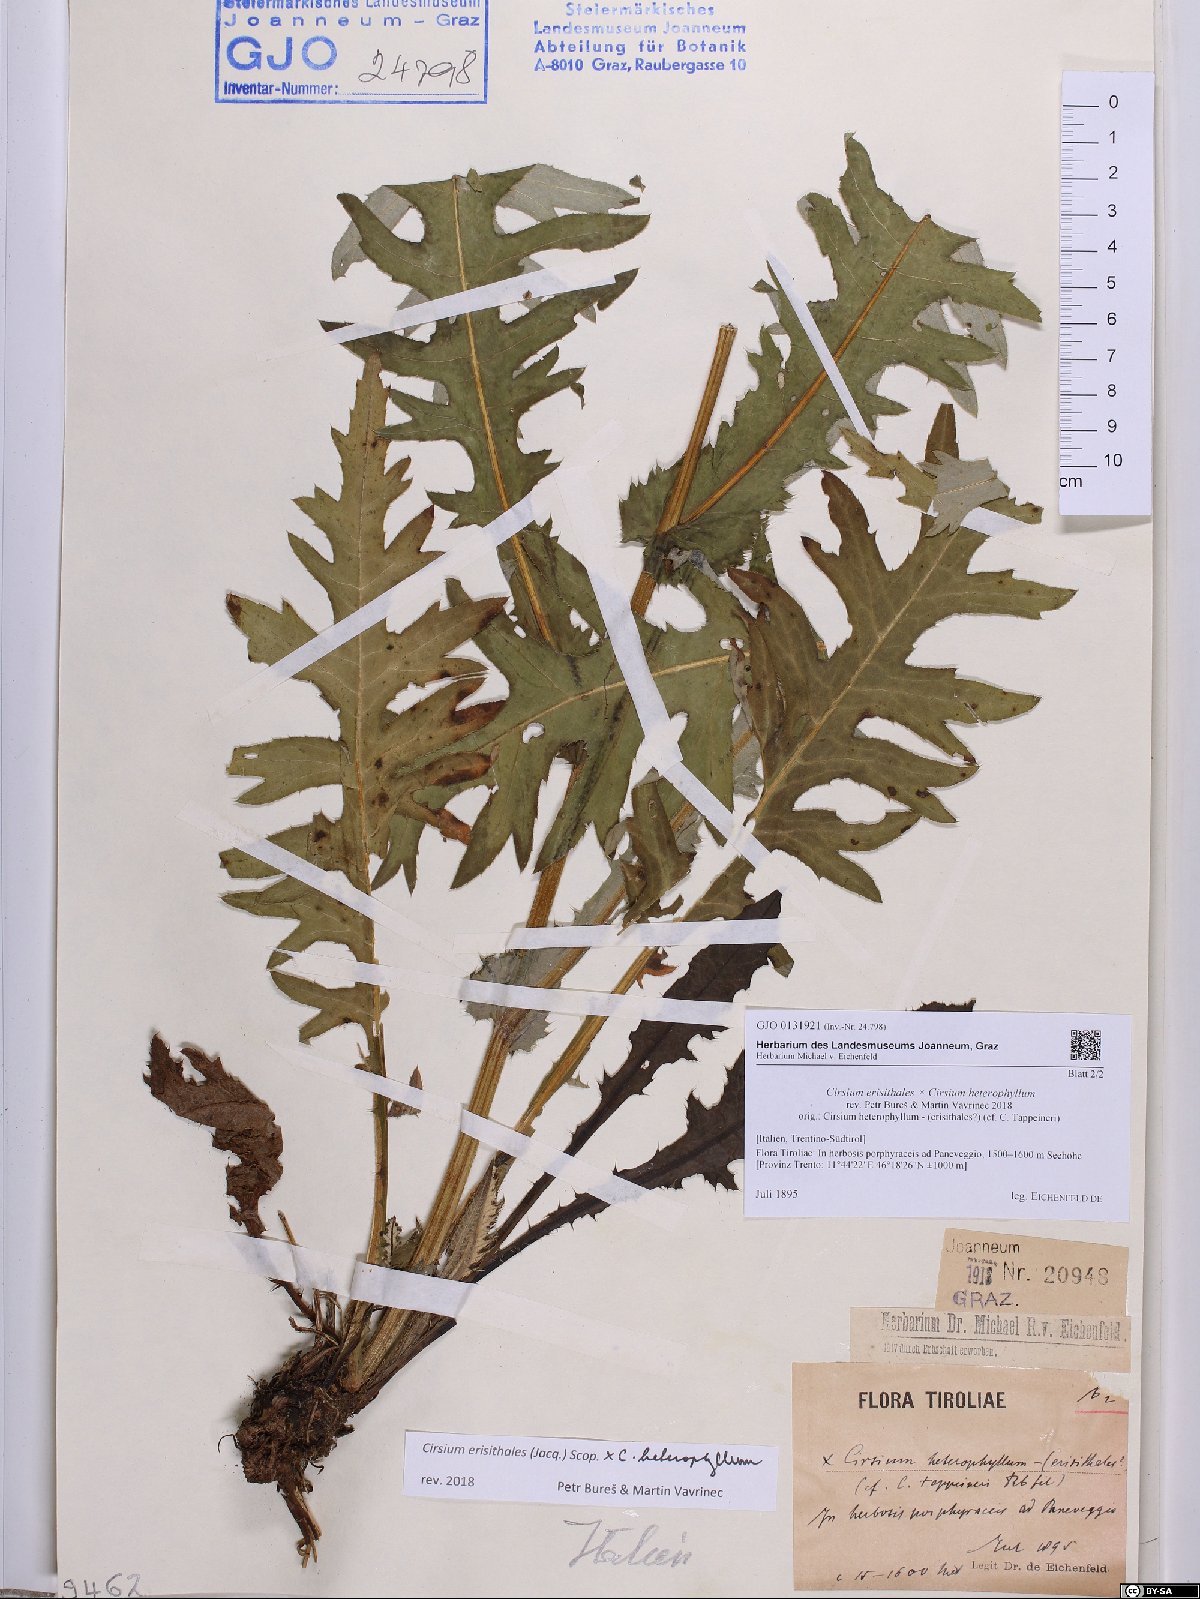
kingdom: Plantae
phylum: Tracheophyta
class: Magnoliopsida
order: Asterales
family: Asteraceae
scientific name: Asteraceae
